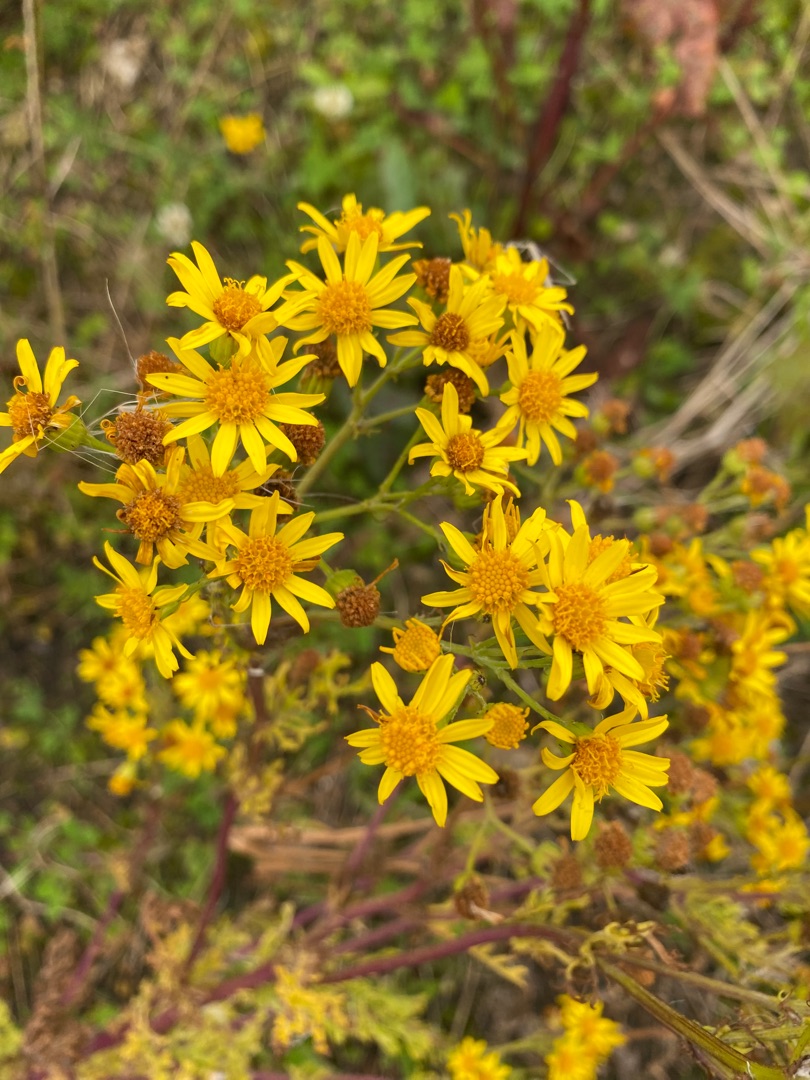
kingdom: Plantae
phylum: Tracheophyta
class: Magnoliopsida
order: Asterales
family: Asteraceae
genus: Jacobaea
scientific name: Jacobaea vulgaris
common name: Eng-brandbæger
